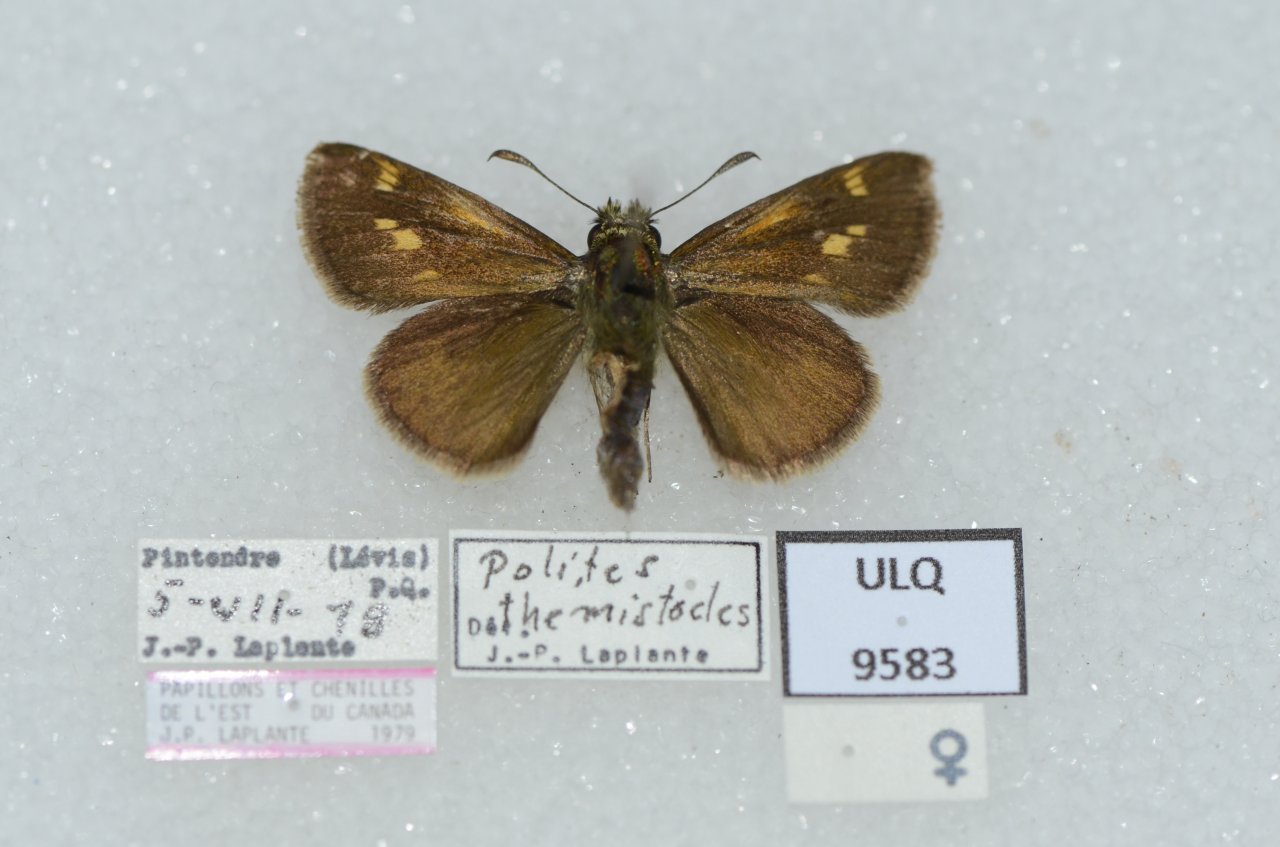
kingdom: Animalia
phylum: Arthropoda
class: Insecta
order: Lepidoptera
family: Hesperiidae
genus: Polites
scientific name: Polites themistocles
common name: Tawny-edged Skipper
